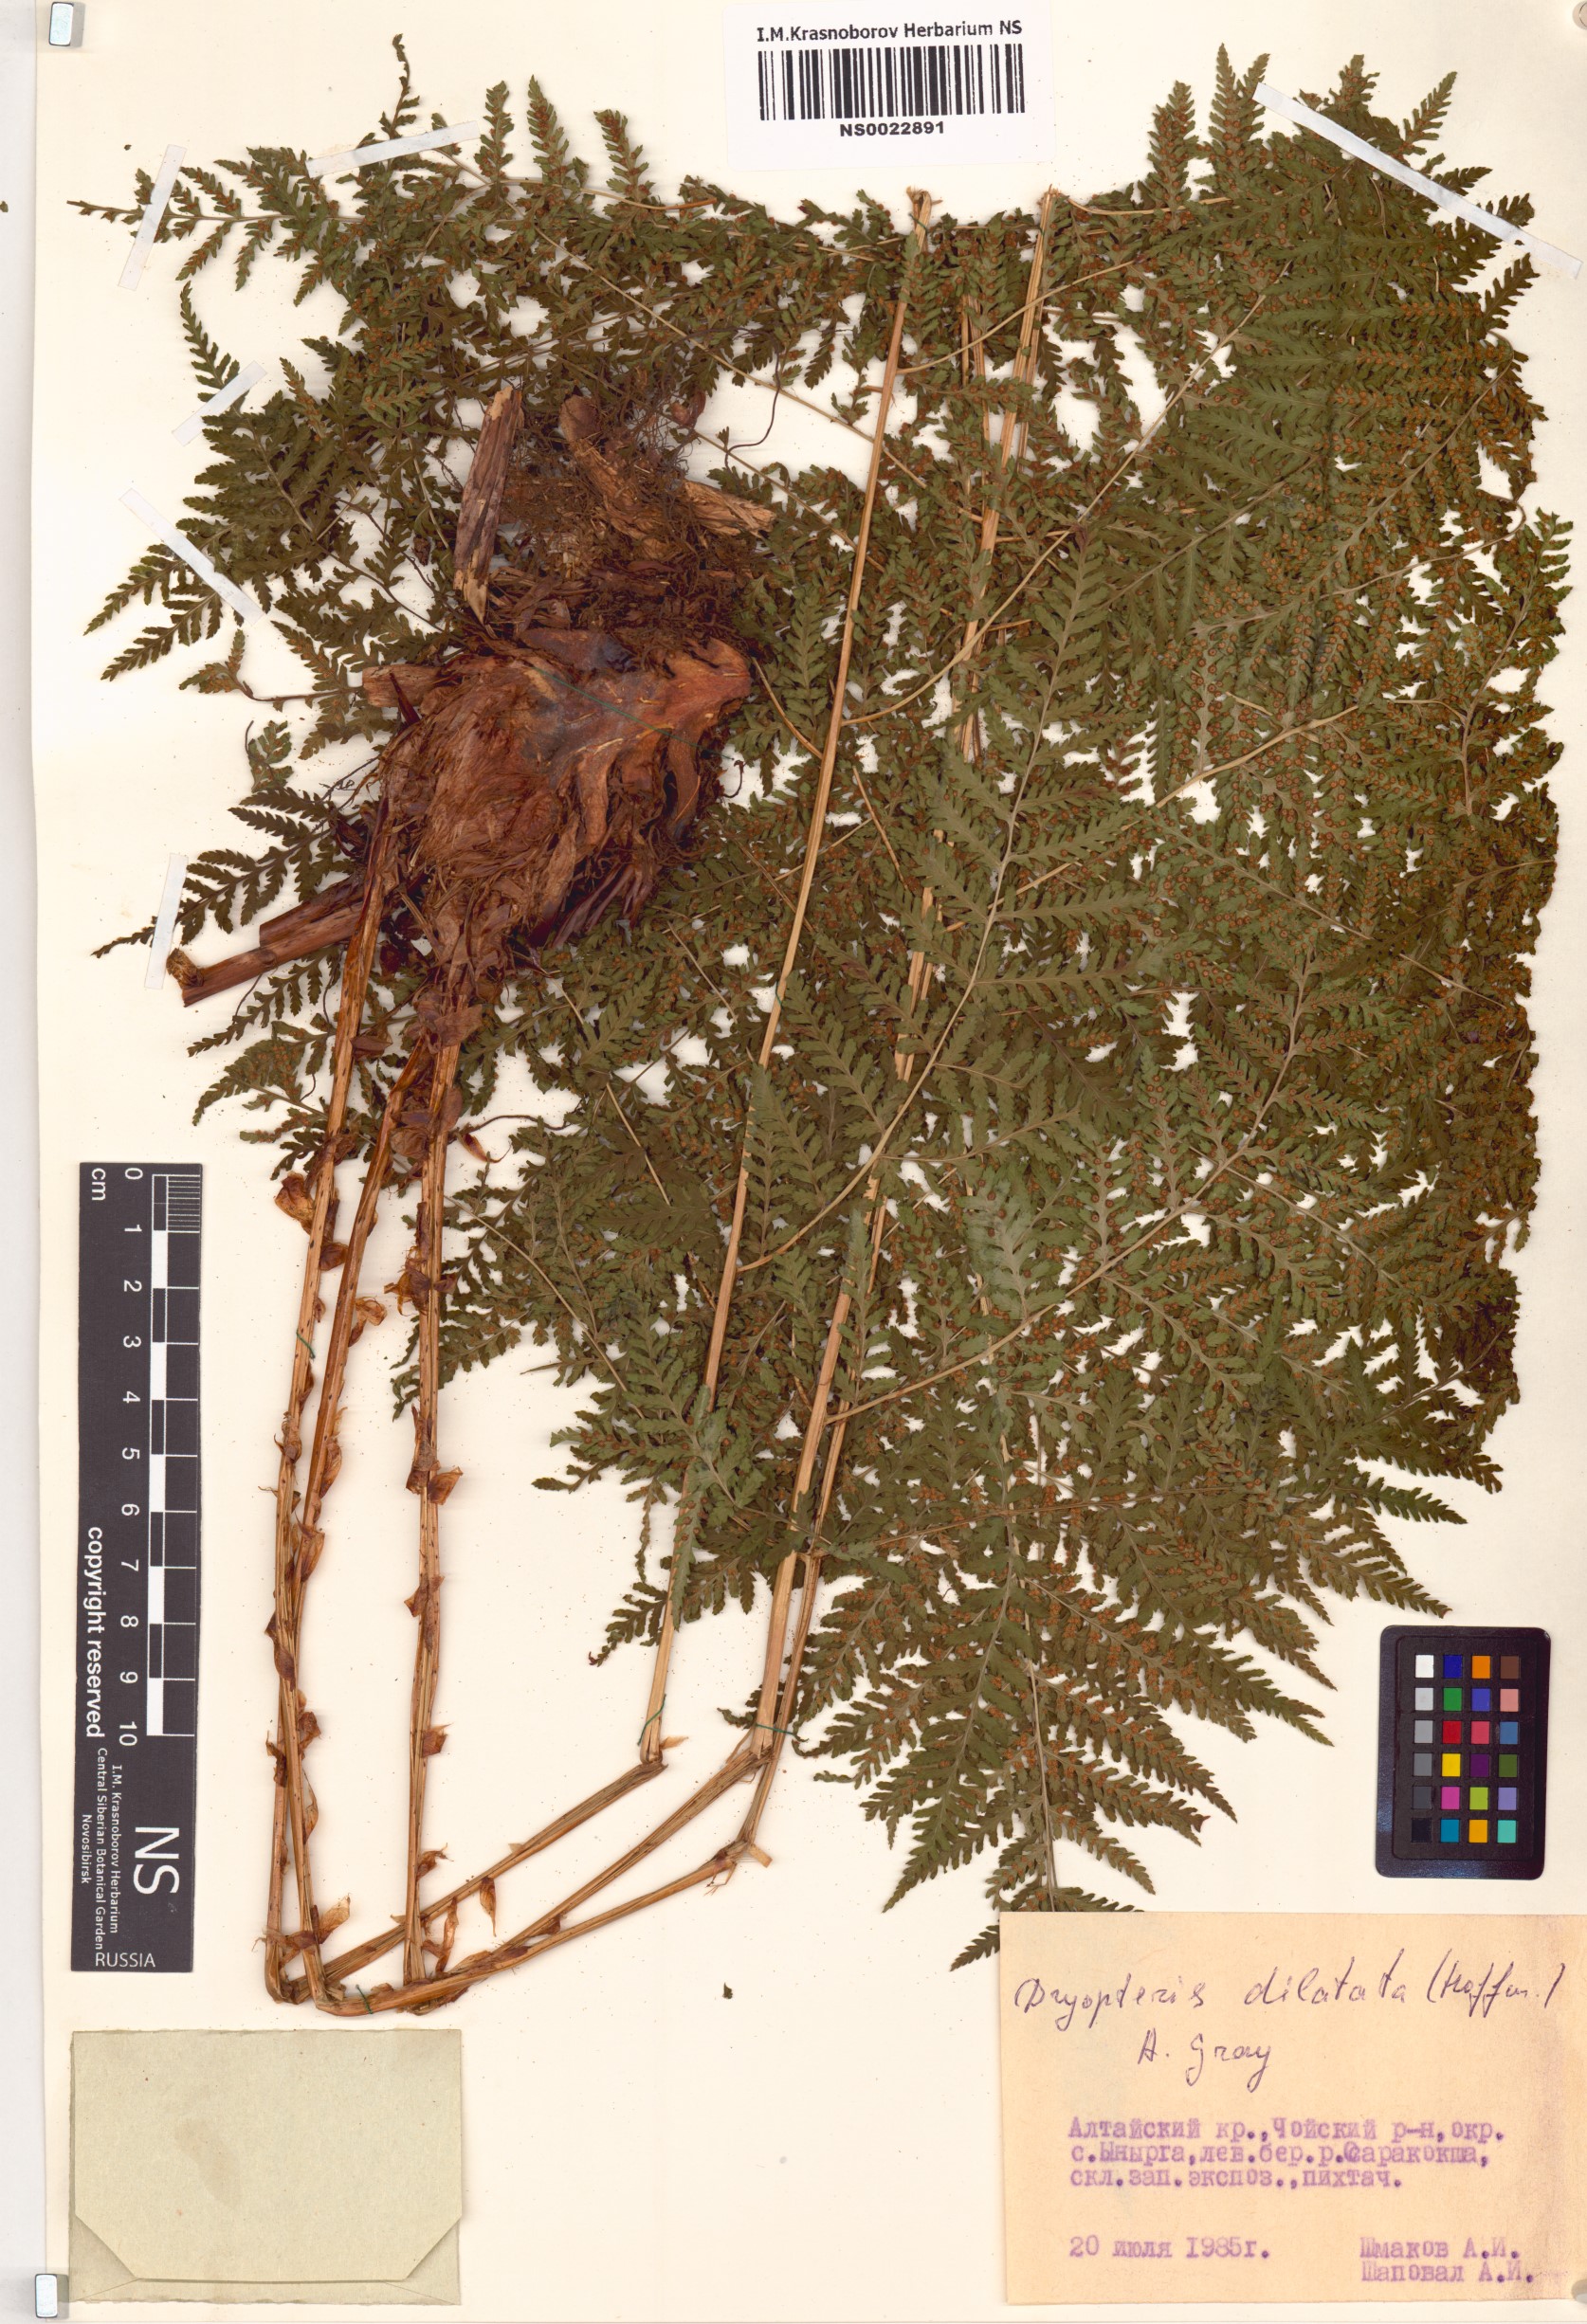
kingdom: Plantae
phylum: Tracheophyta
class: Polypodiopsida
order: Polypodiales
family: Dryopteridaceae
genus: Dryopteris
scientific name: Dryopteris dilatata
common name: Broad buckler-fern
